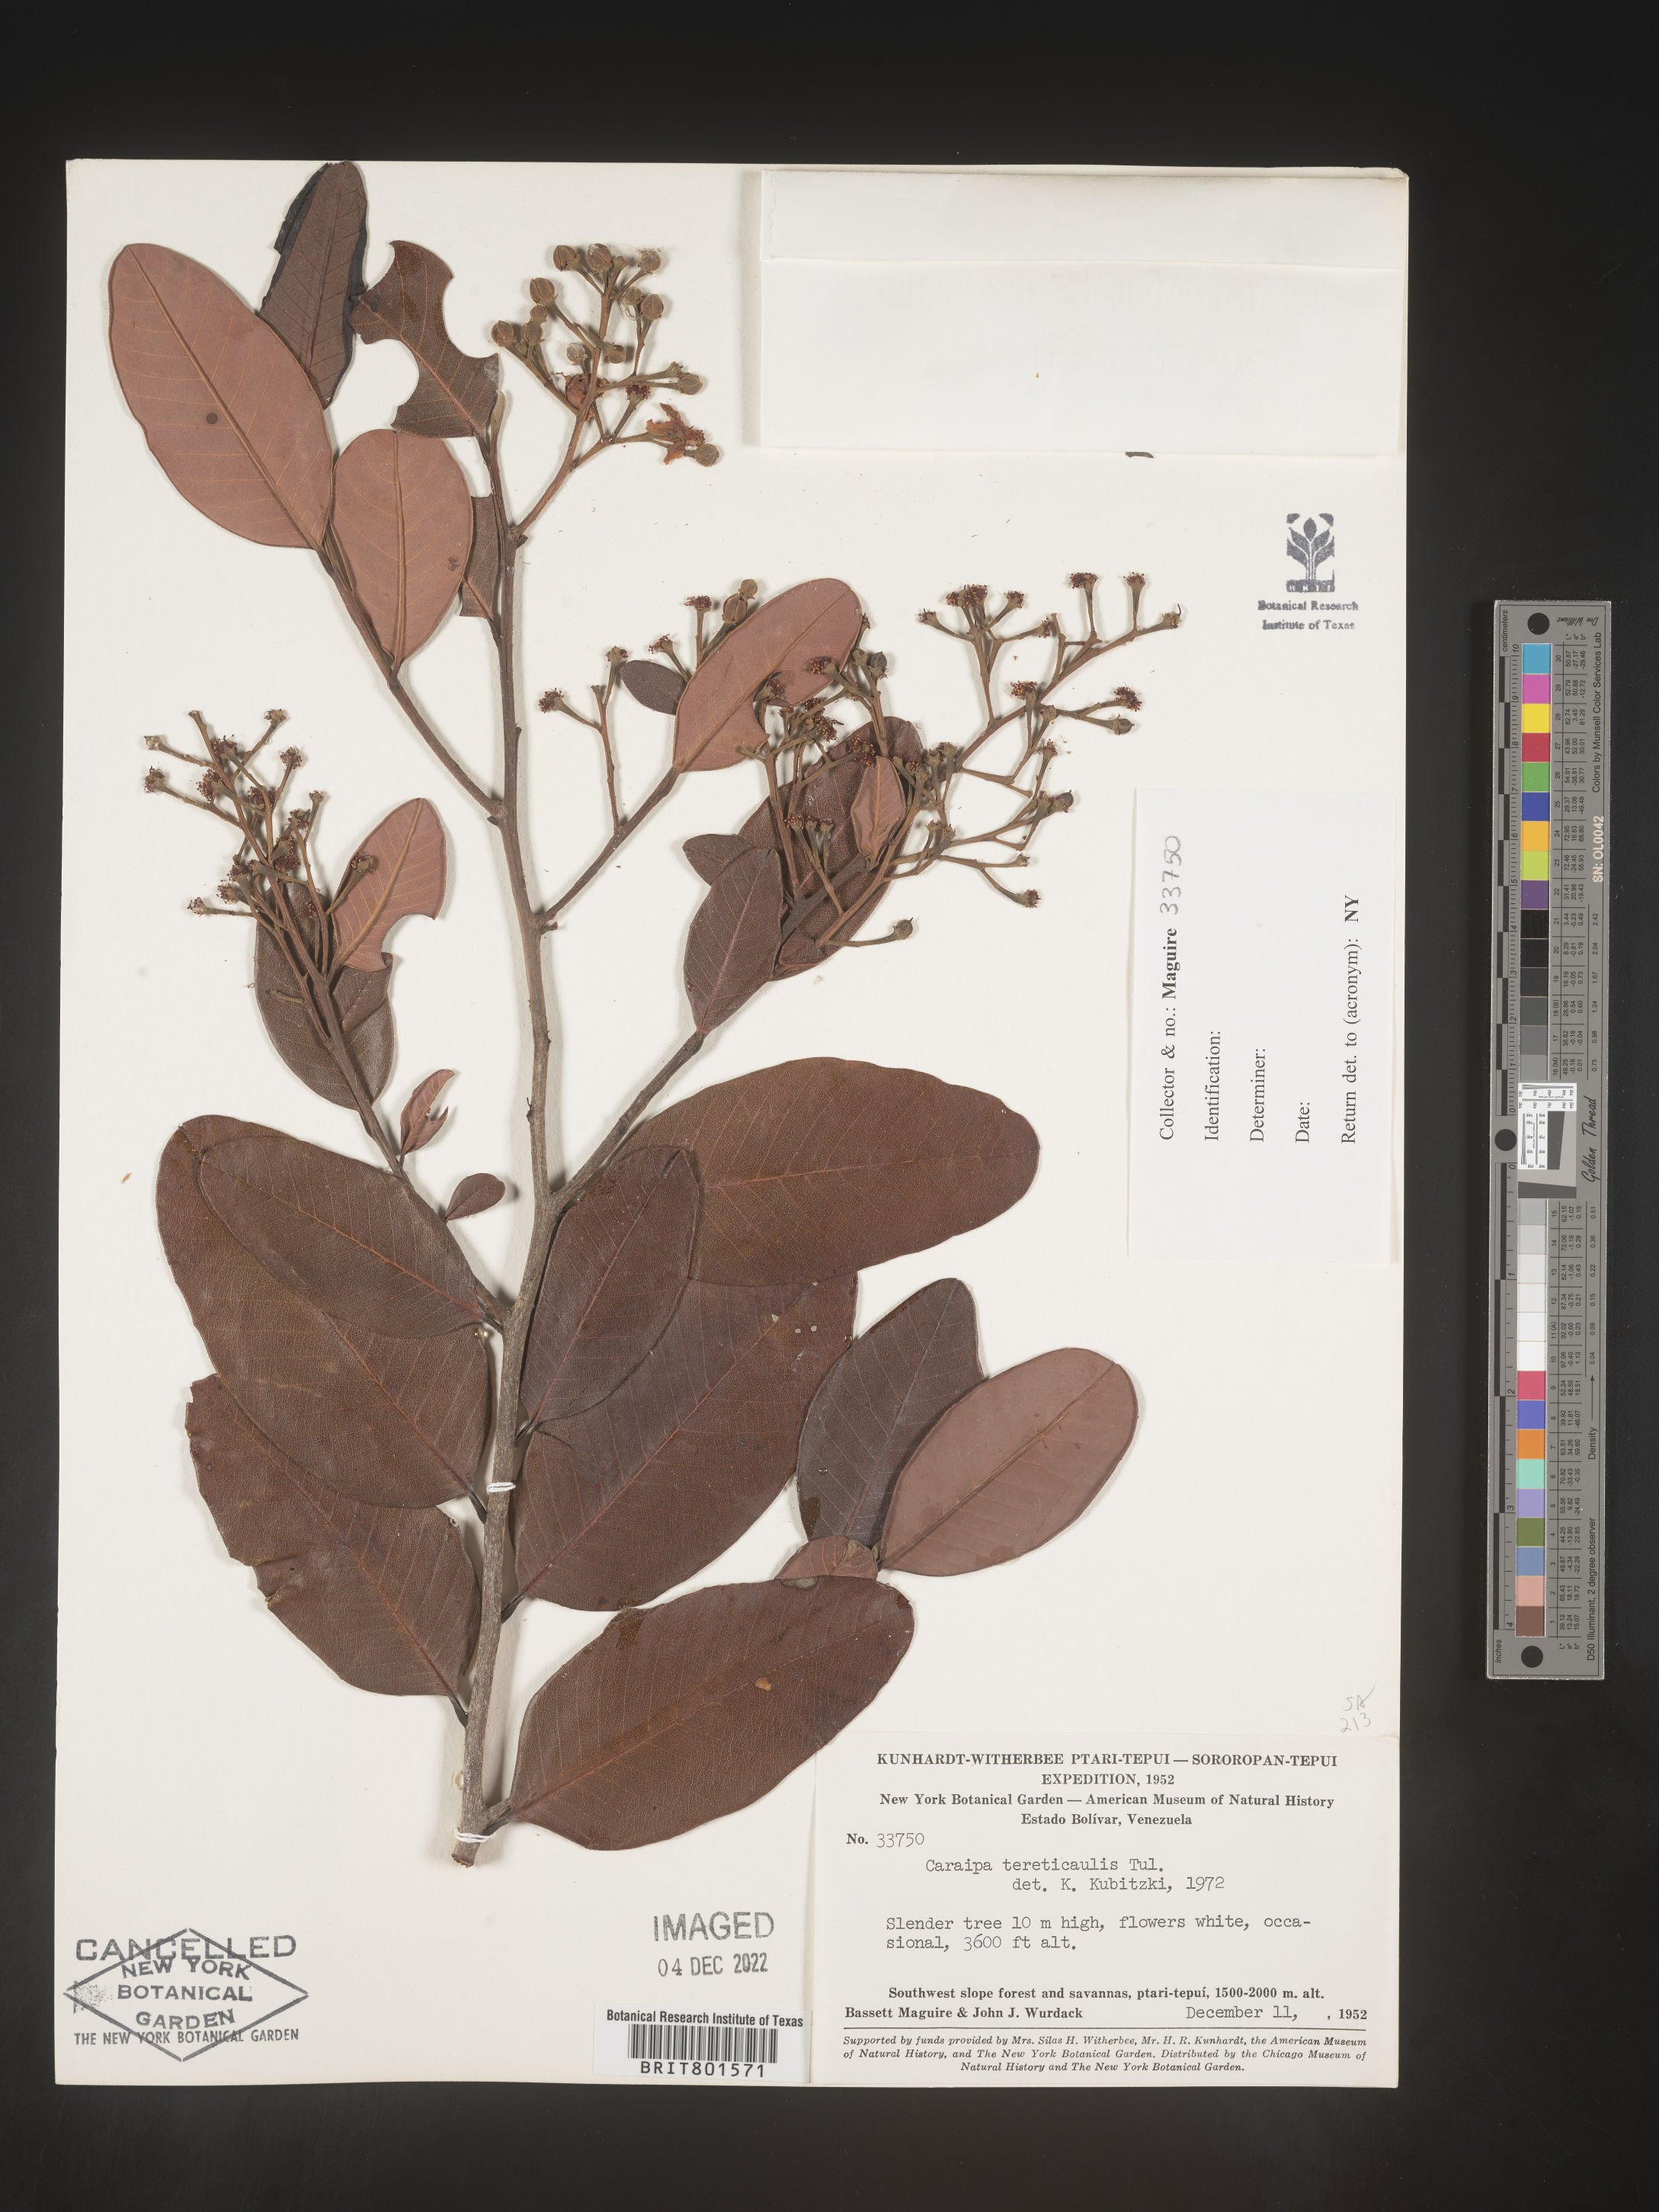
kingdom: Plantae
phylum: Tracheophyta
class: Magnoliopsida
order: Malpighiales
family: Calophyllaceae
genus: Caraipa
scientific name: Caraipa
